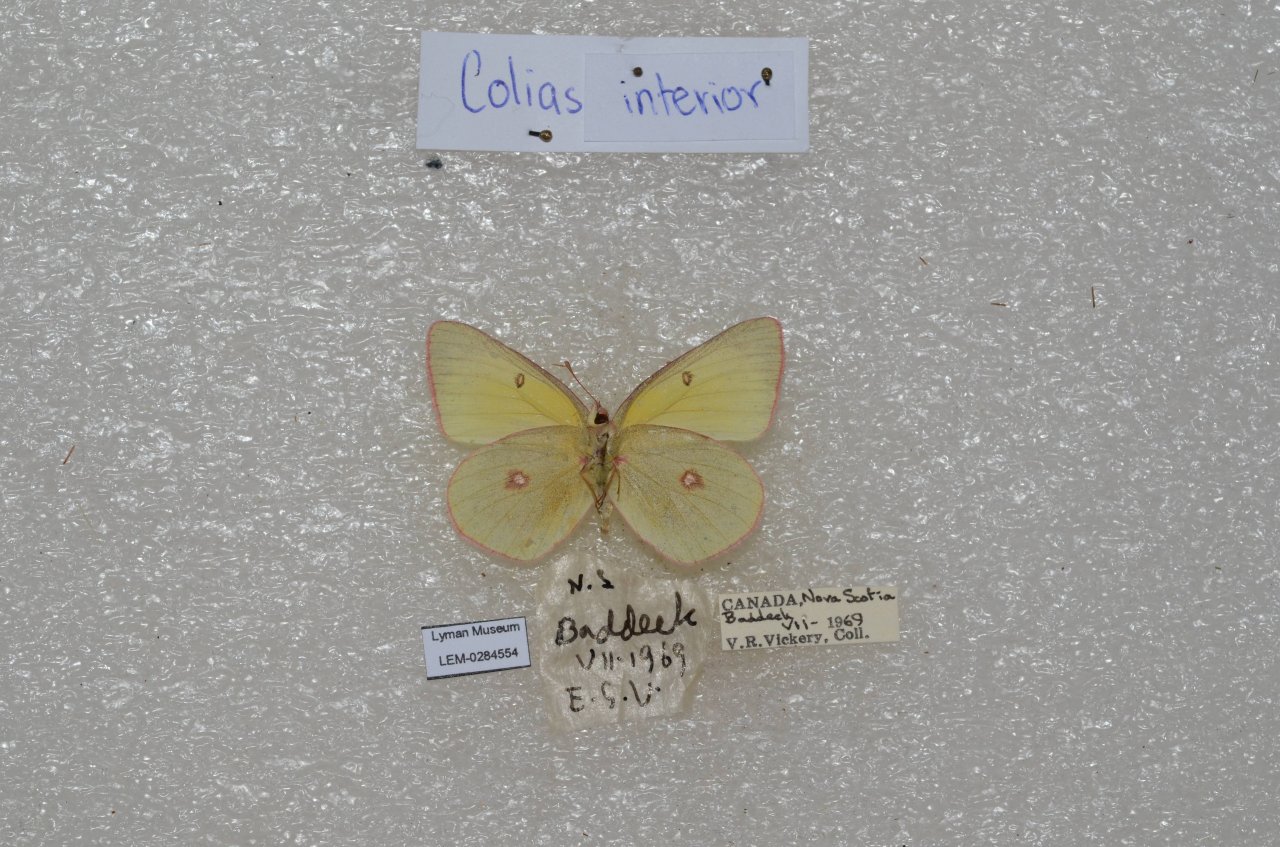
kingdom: Animalia
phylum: Arthropoda
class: Insecta
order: Lepidoptera
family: Pieridae
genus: Colias
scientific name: Colias interior
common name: Pink-edged Sulphur
